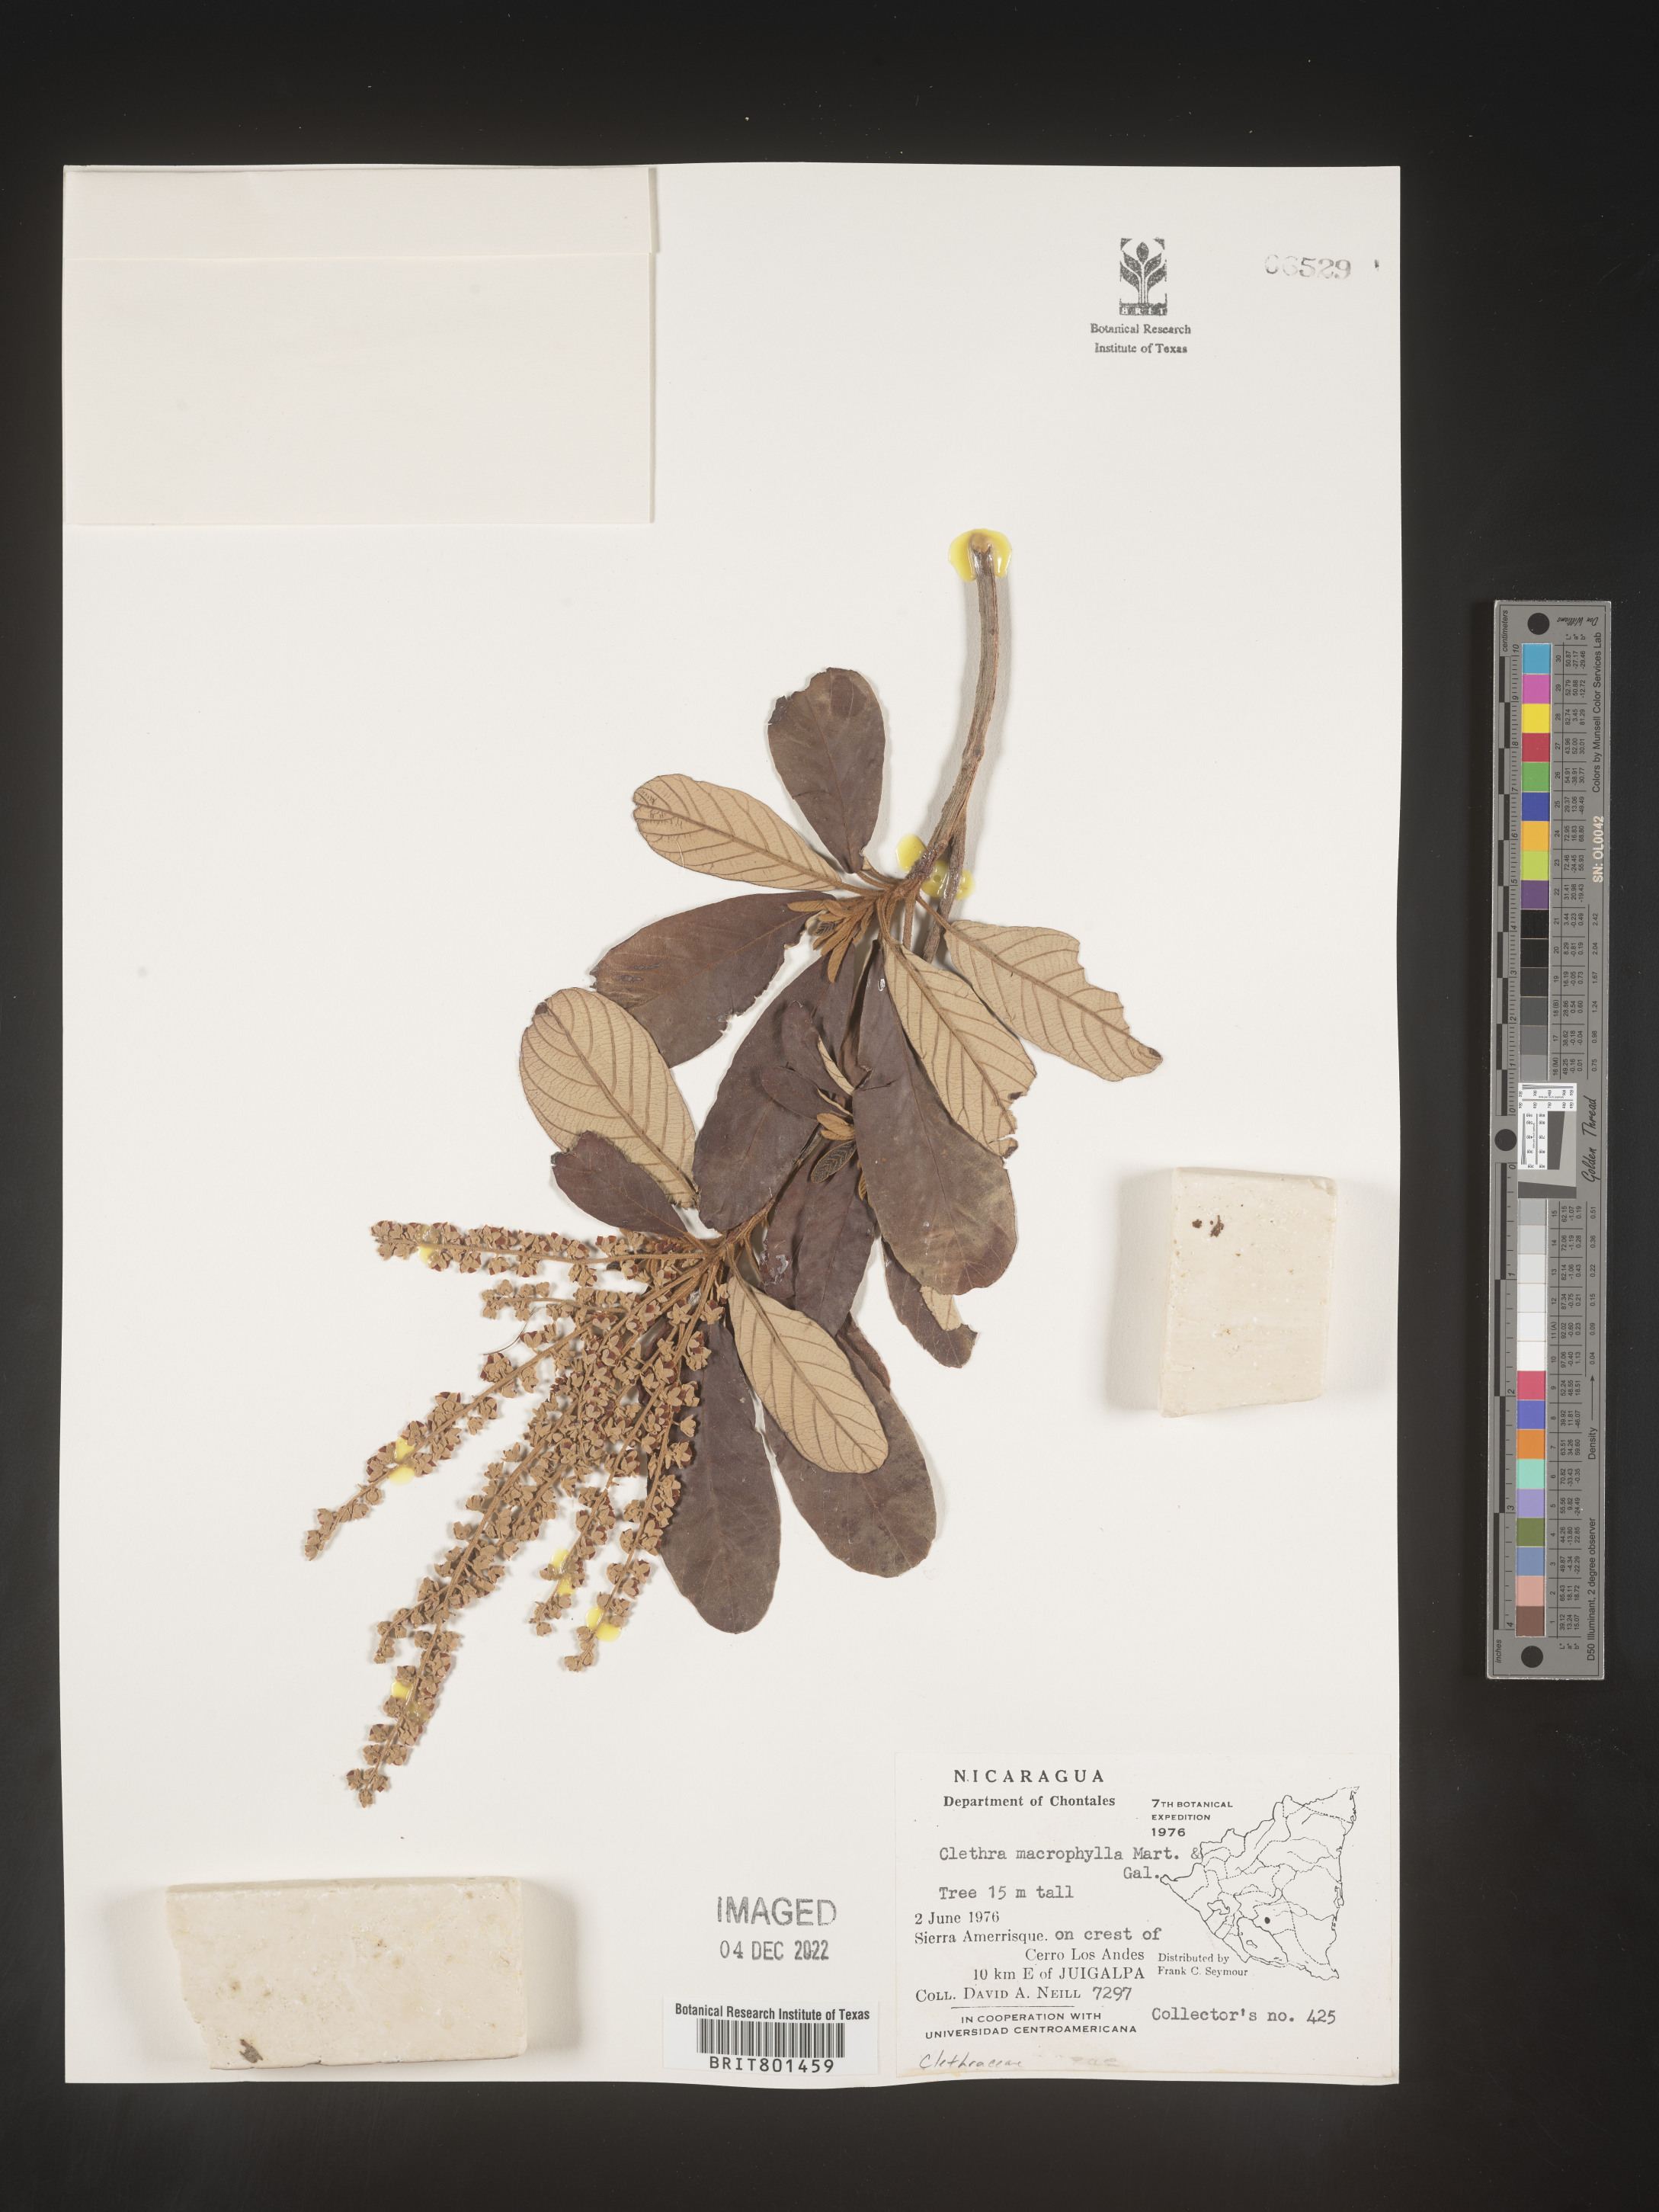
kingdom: Plantae
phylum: Tracheophyta
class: Magnoliopsida
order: Ericales
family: Clethraceae
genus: Clethra
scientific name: Clethra
